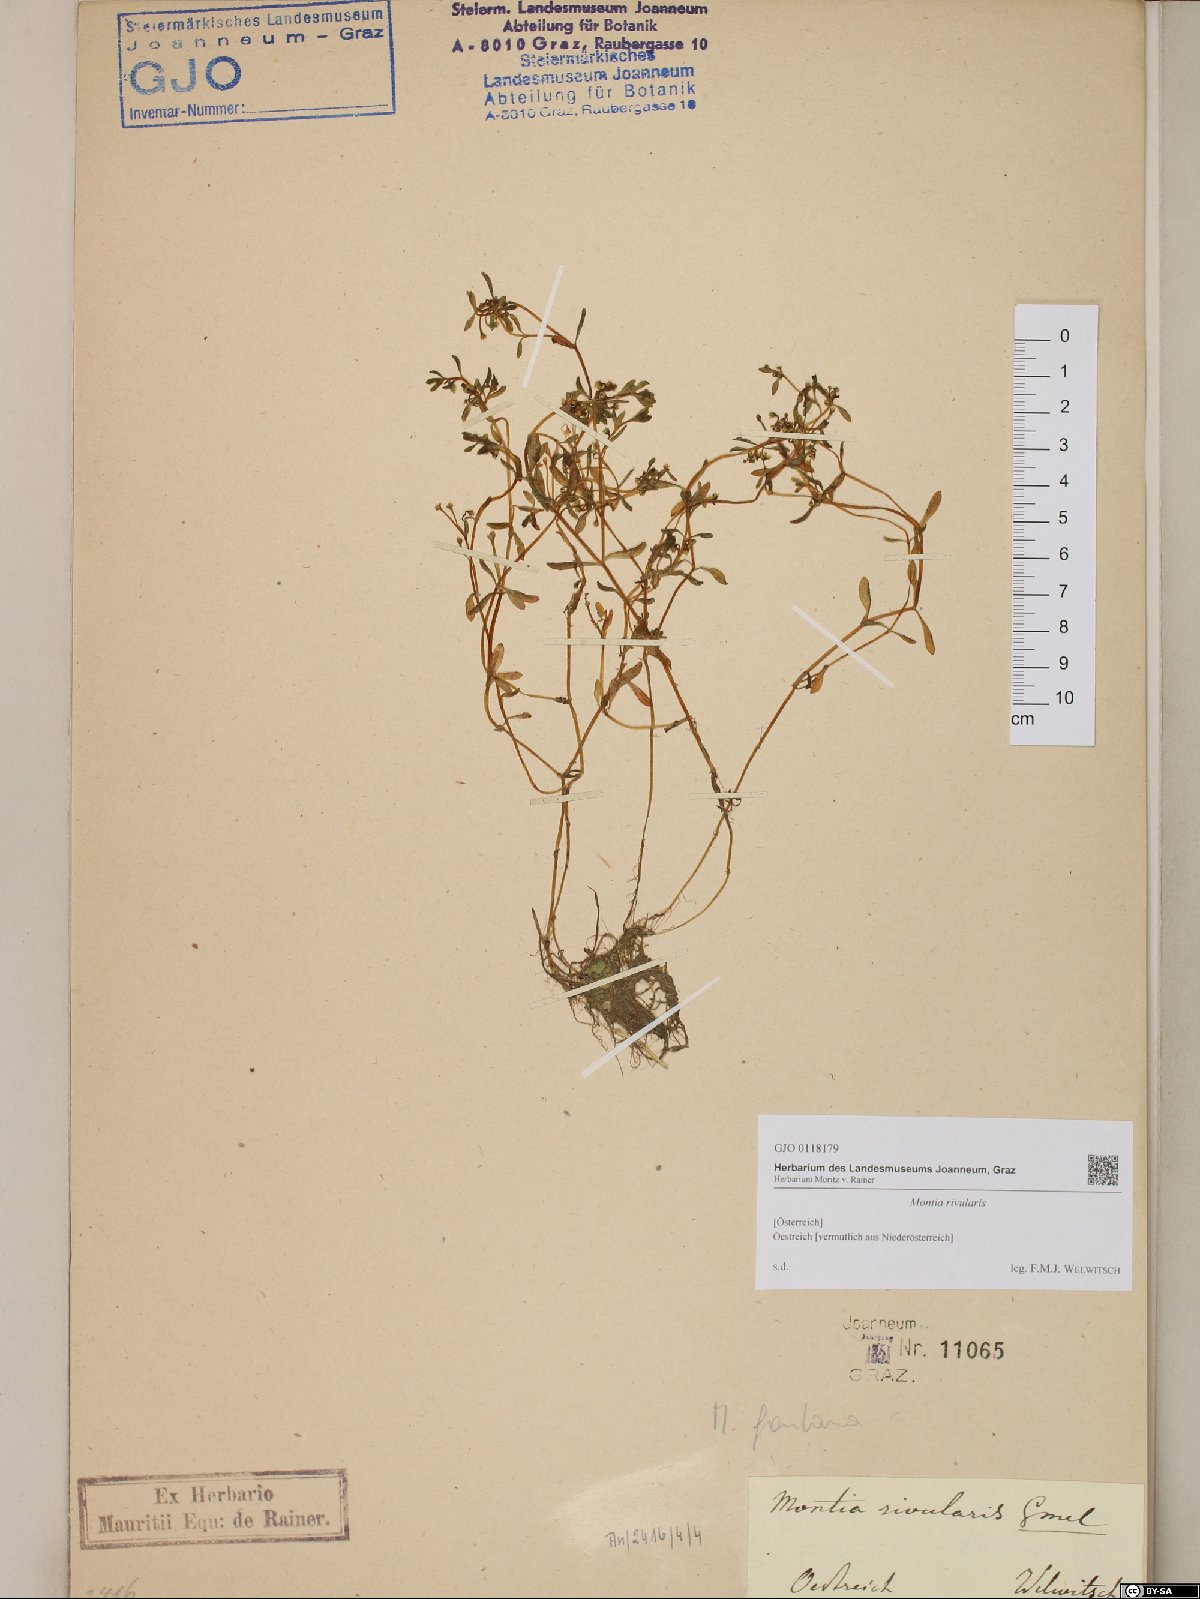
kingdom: Plantae
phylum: Tracheophyta
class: Magnoliopsida
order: Caryophyllales
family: Montiaceae
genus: Montia
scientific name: Montia fontana
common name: Blinks
